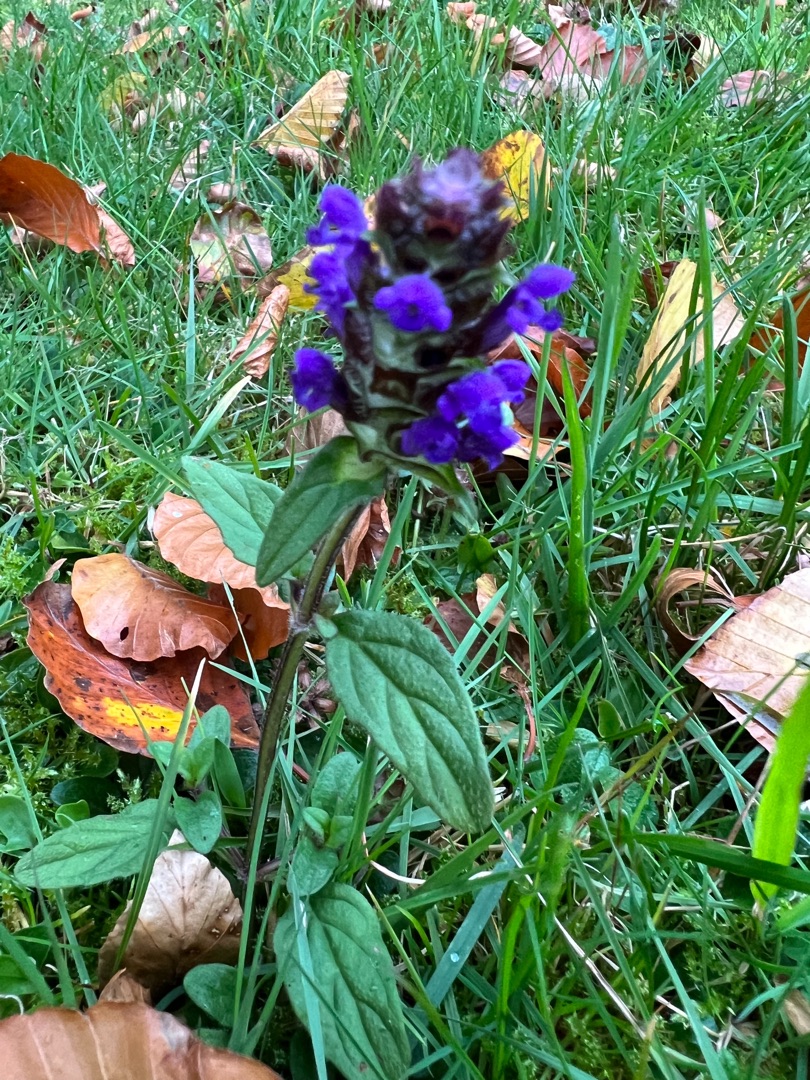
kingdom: Plantae
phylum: Tracheophyta
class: Magnoliopsida
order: Lamiales
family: Lamiaceae
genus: Prunella
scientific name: Prunella vulgaris
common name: Almindelig brunelle
